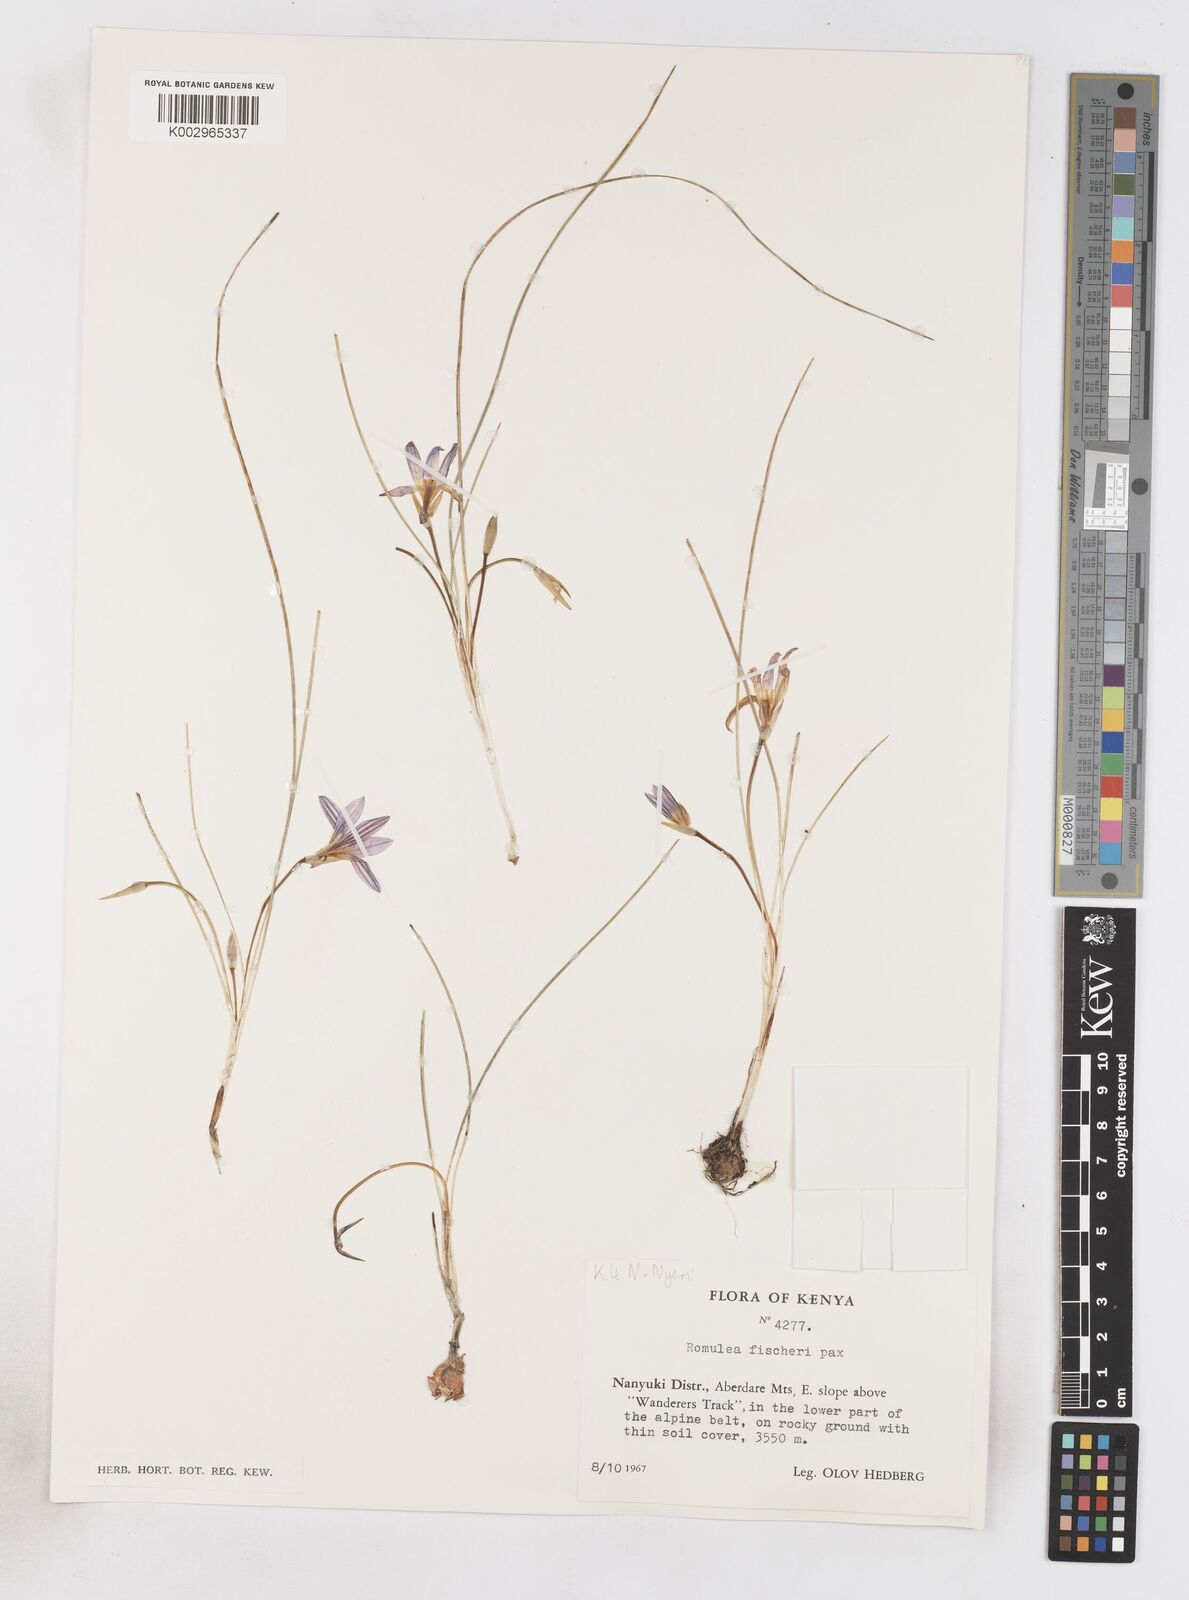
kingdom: Plantae
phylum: Tracheophyta
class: Liliopsida
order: Asparagales
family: Iridaceae
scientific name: Iridaceae
